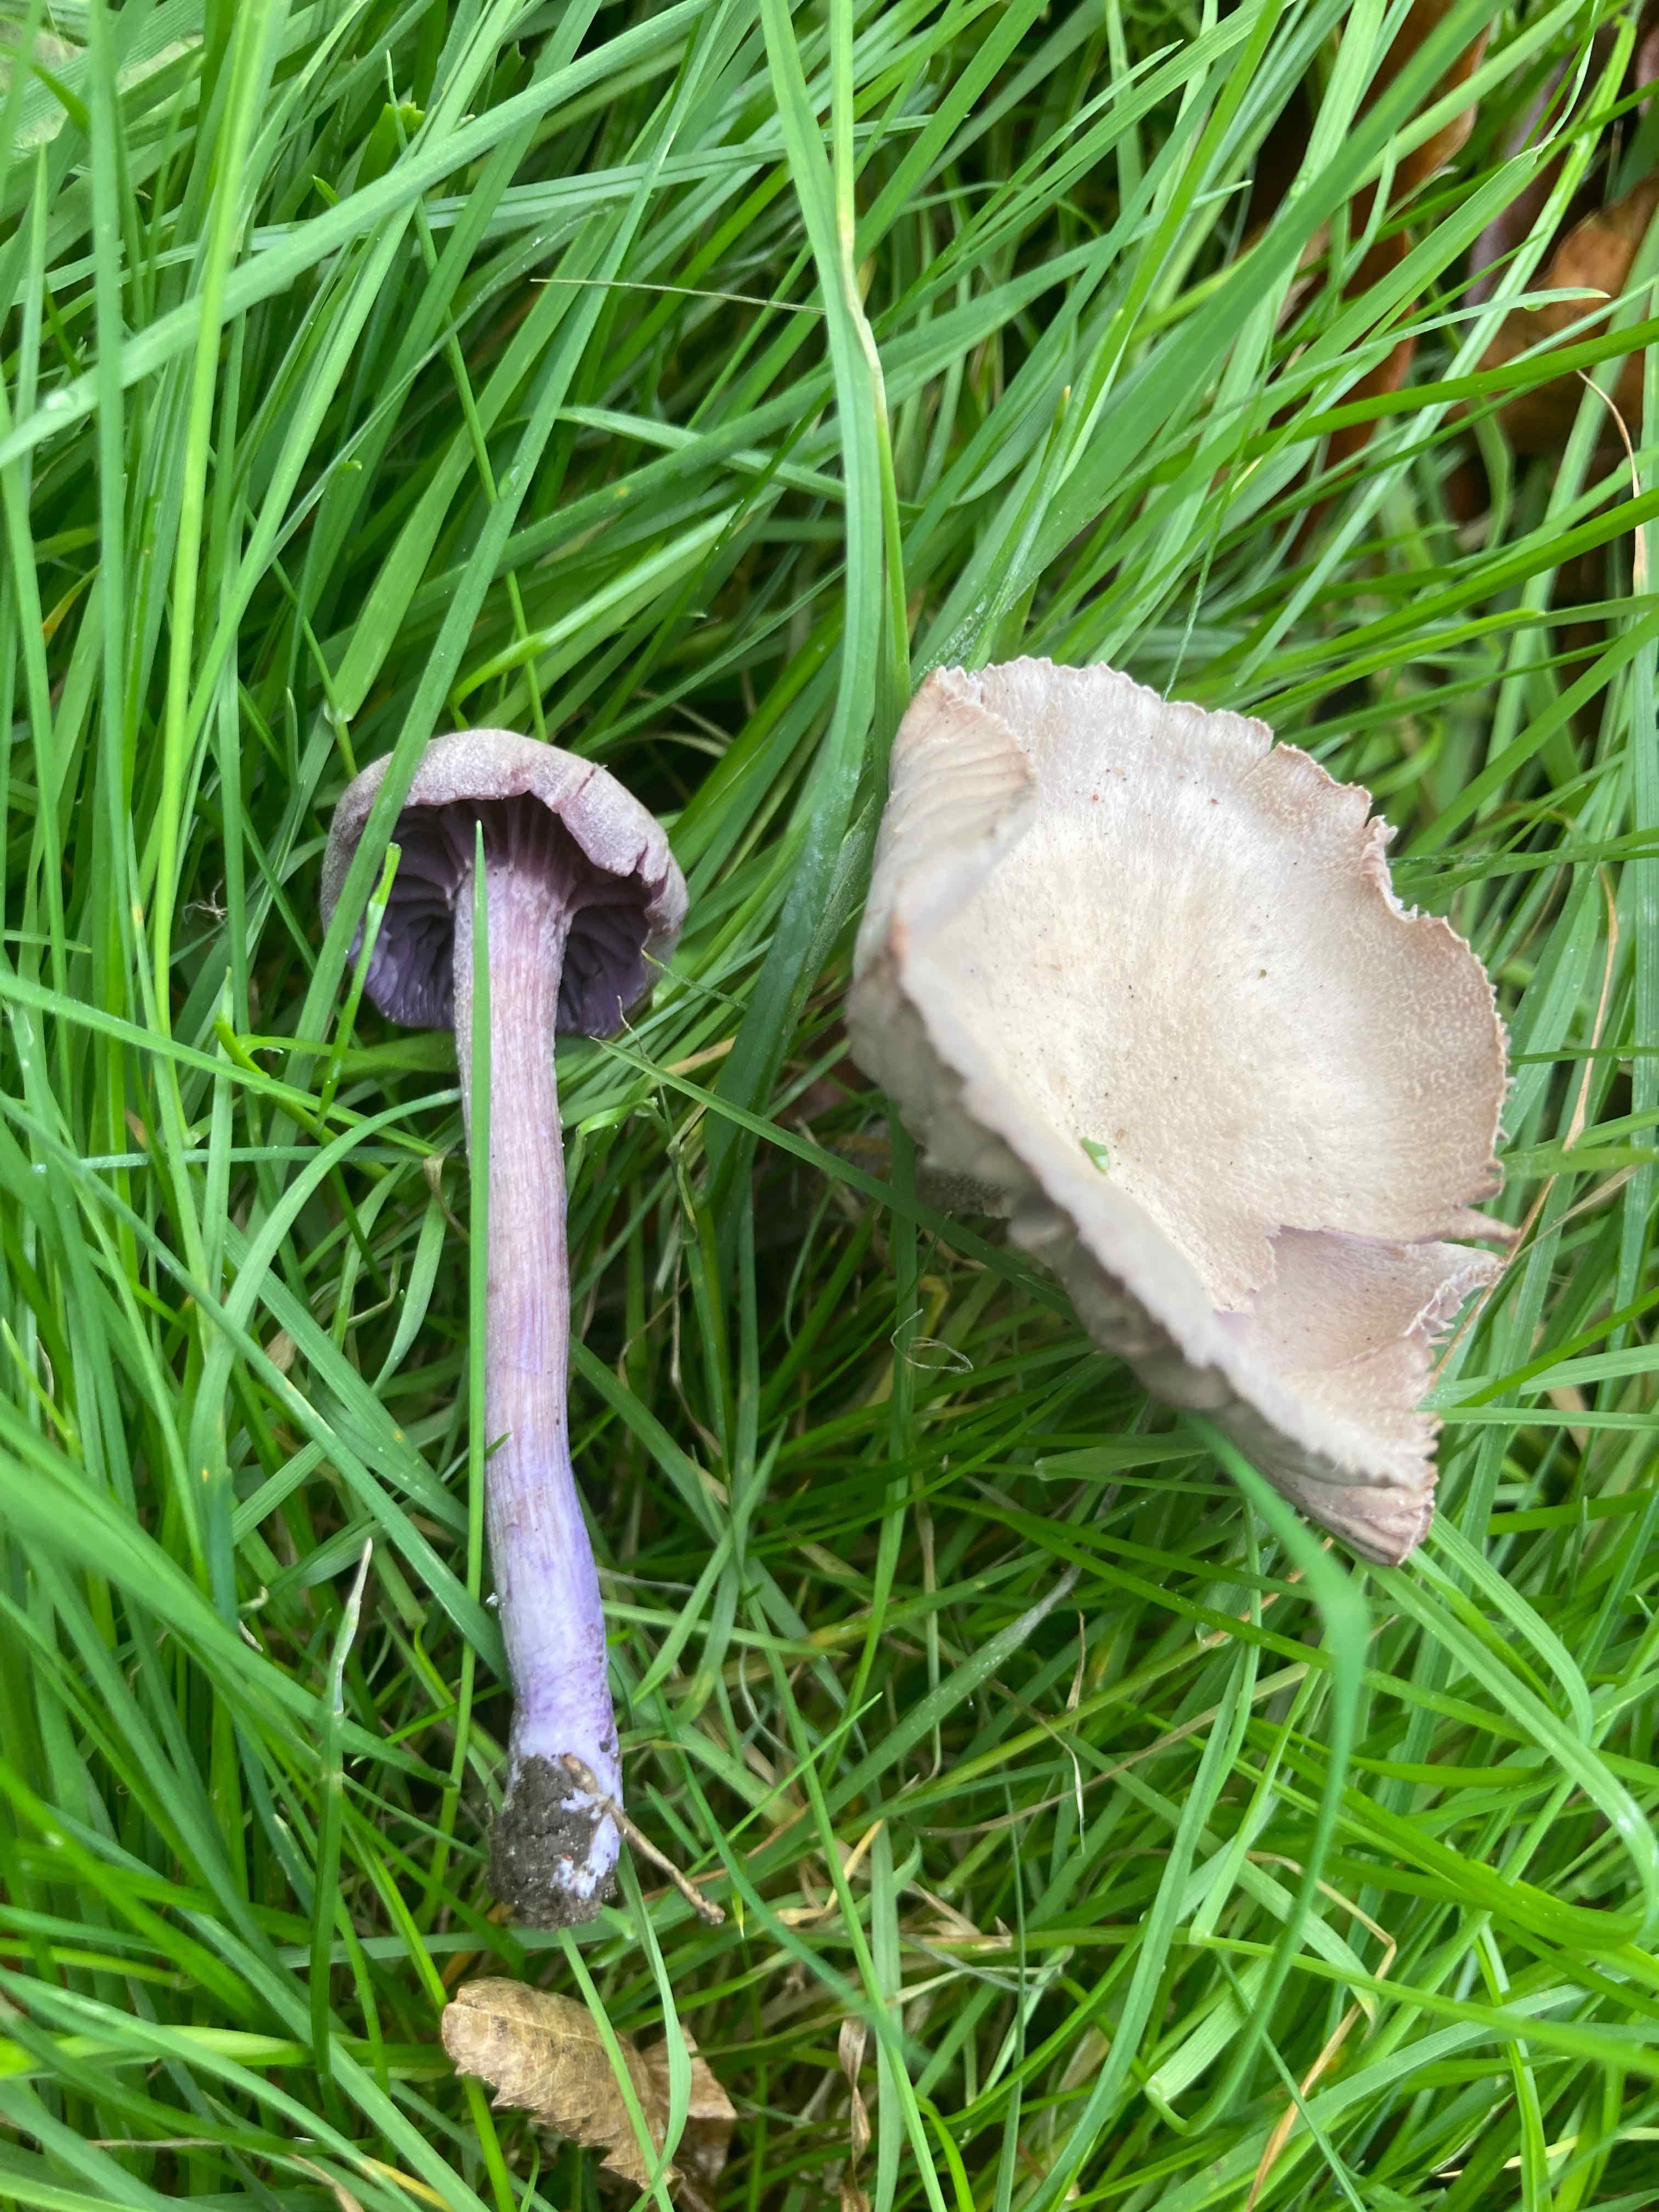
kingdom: Fungi
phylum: Basidiomycota
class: Agaricomycetes
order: Agaricales
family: Hydnangiaceae
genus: Laccaria
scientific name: Laccaria amethystina
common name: violet ametysthat
